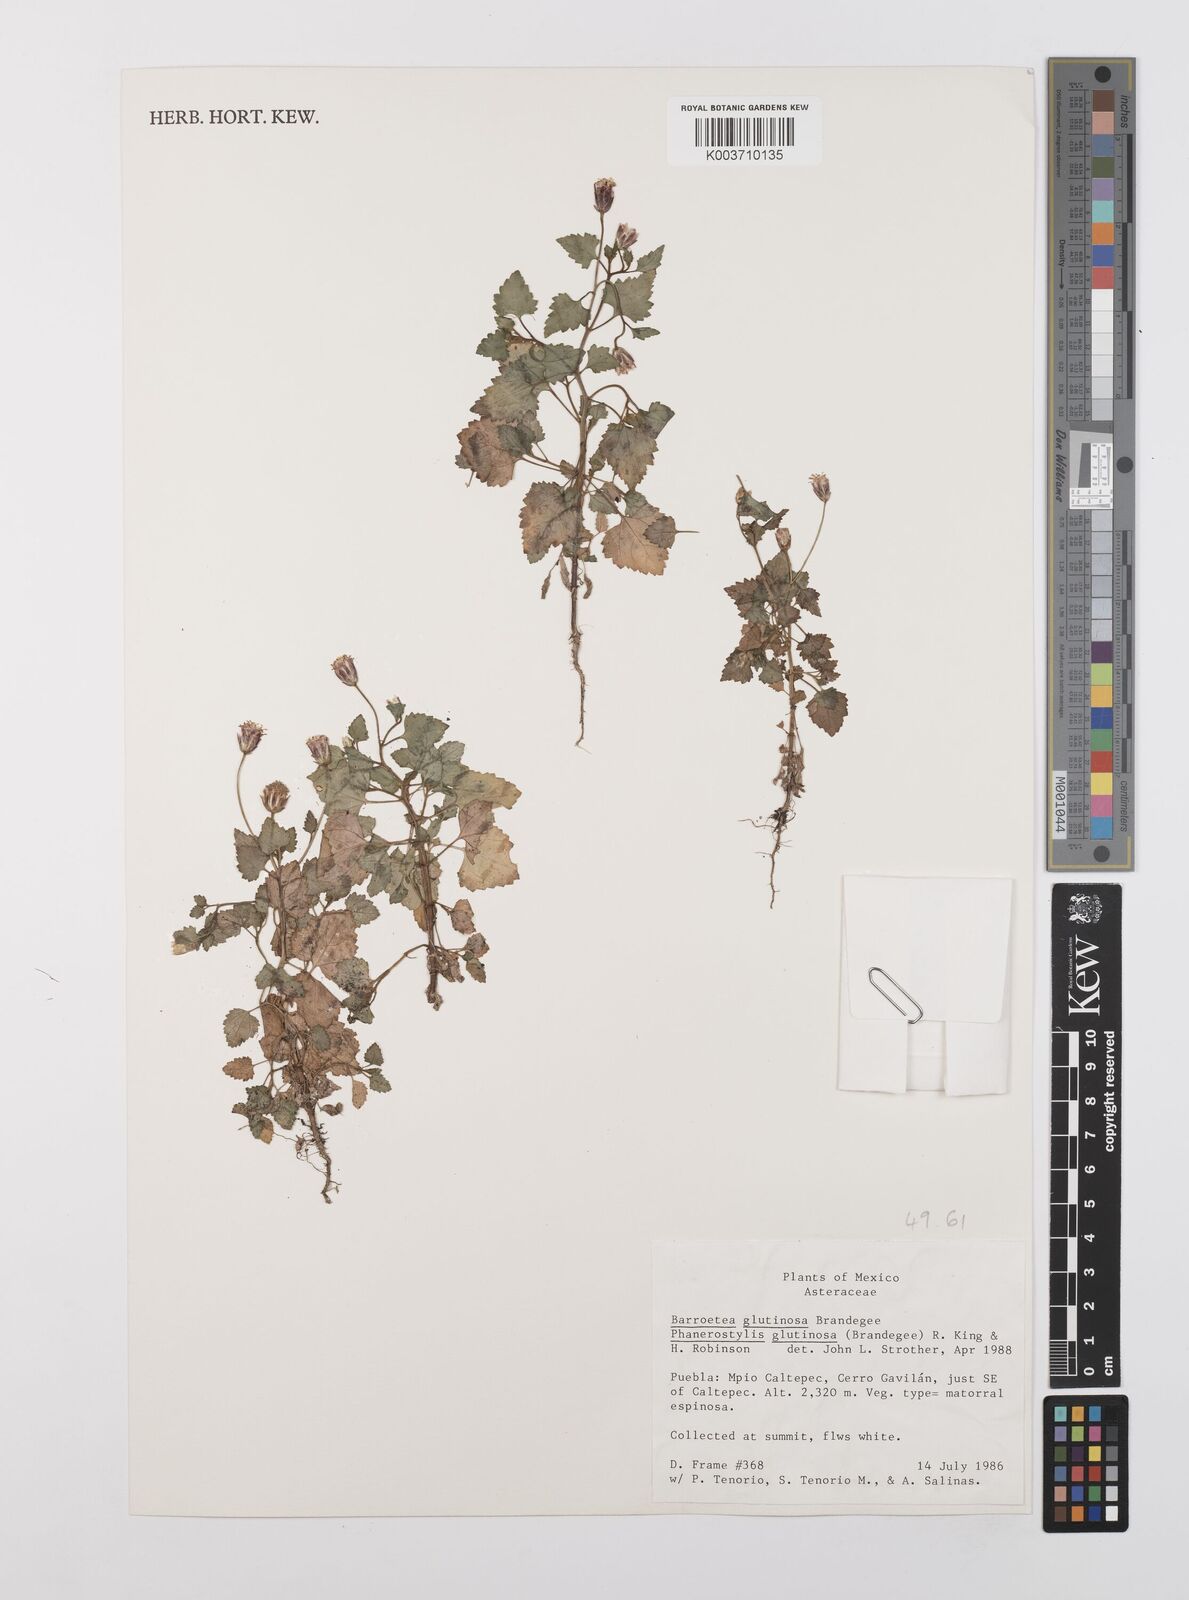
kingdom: Plantae
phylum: Tracheophyta
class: Magnoliopsida
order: Asterales
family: Asteraceae
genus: Brickellia
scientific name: Brickellia problematica
